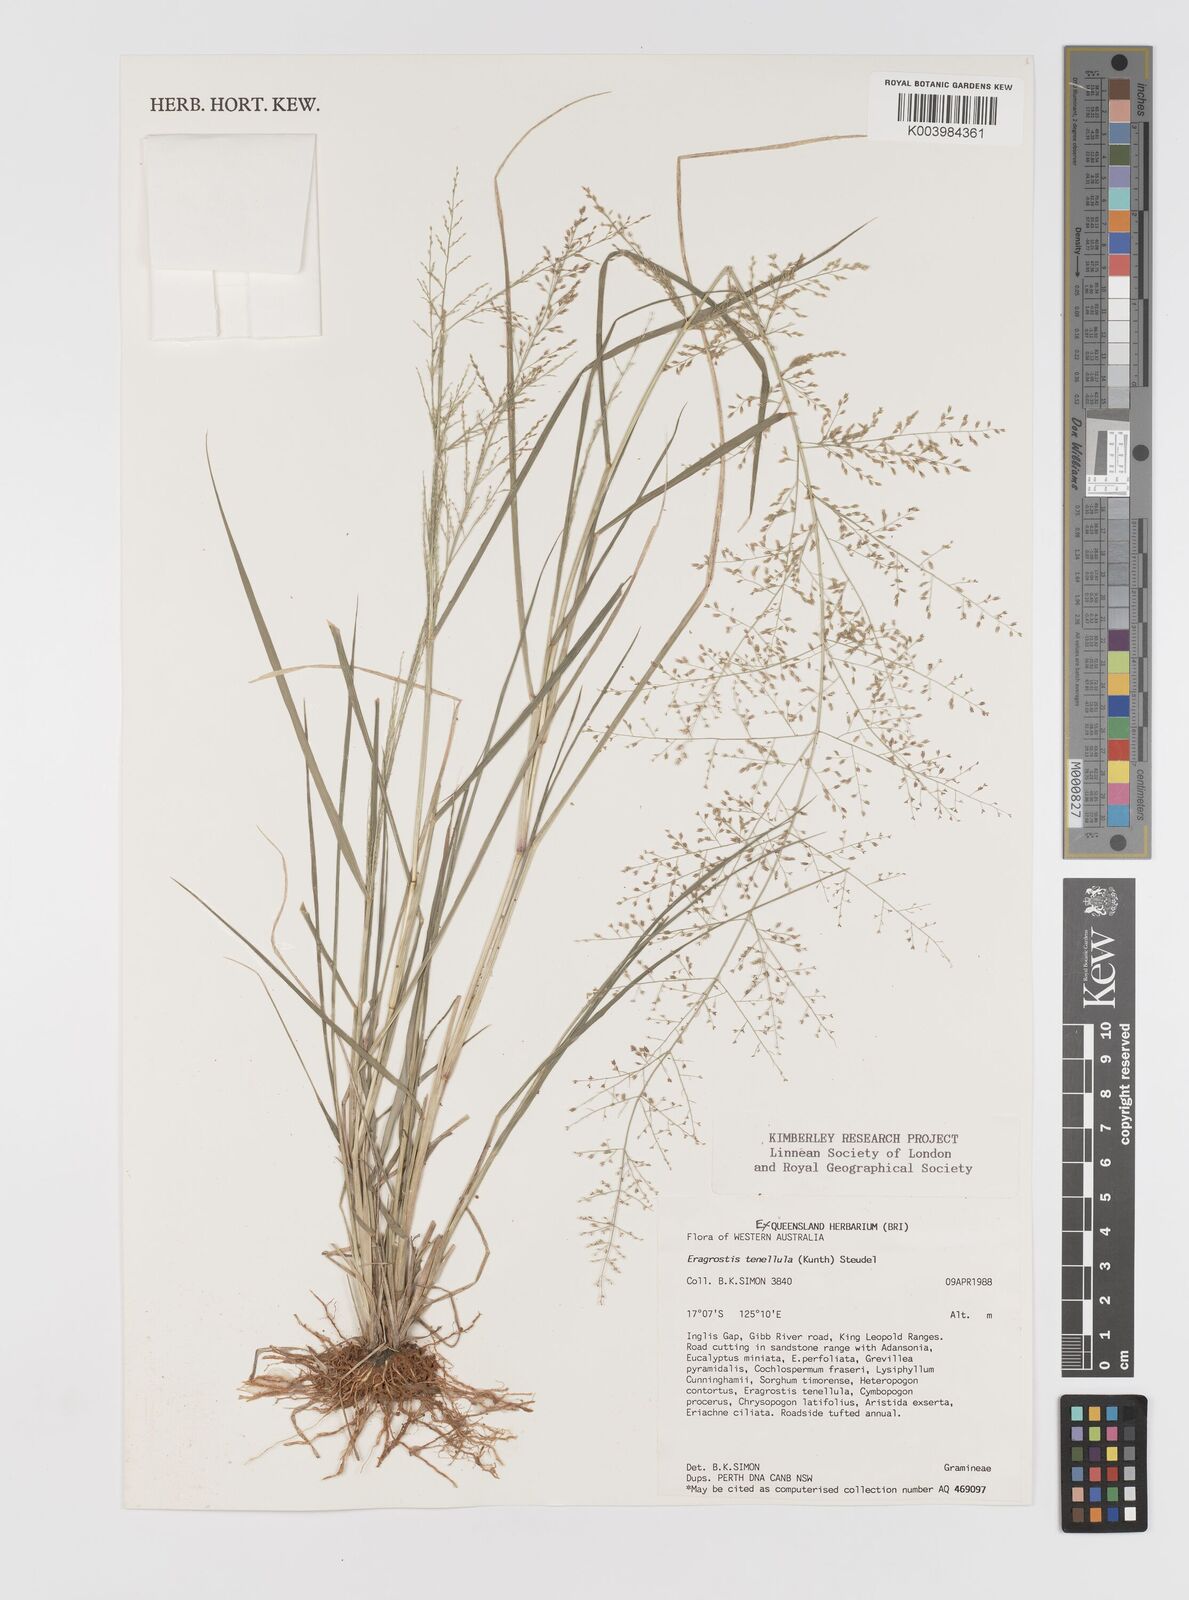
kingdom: Plantae
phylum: Tracheophyta
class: Liliopsida
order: Poales
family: Poaceae
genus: Eragrostis
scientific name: Eragrostis tenellula
